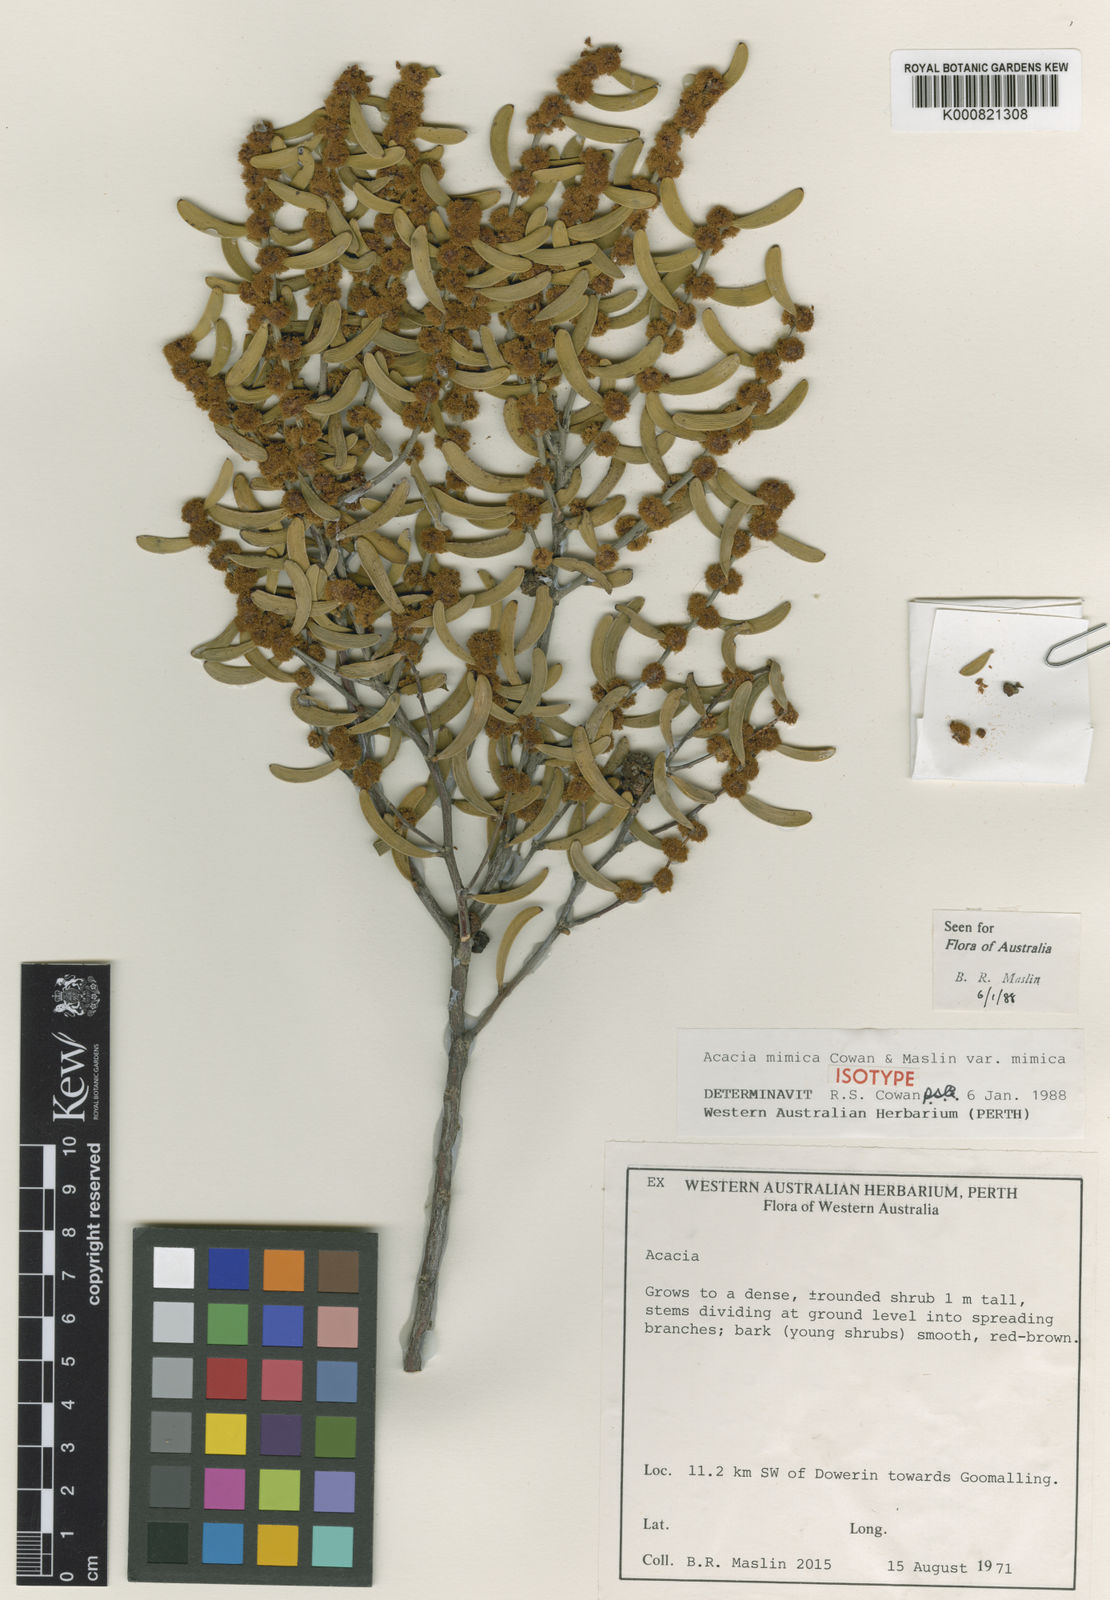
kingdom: Plantae
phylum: Tracheophyta
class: Magnoliopsida
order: Fabales
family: Fabaceae
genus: Acacia
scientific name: Acacia mimica
